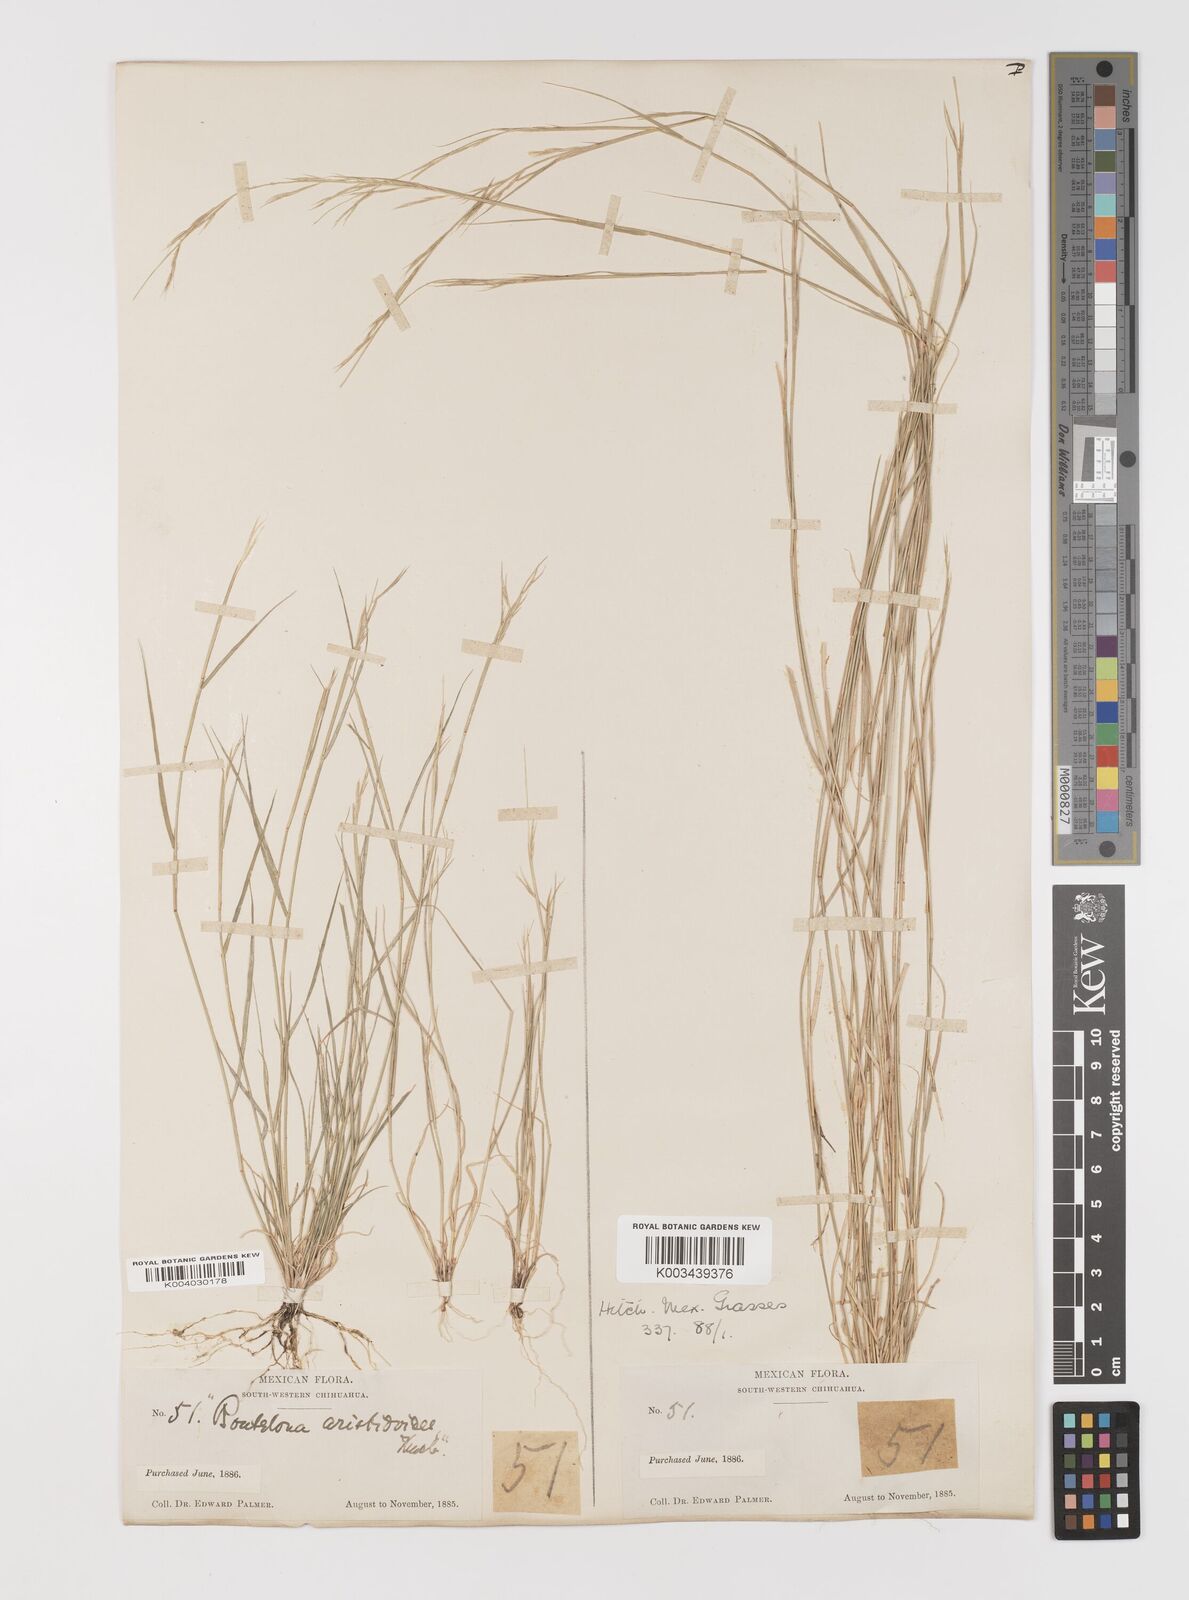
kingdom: Plantae
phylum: Tracheophyta
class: Liliopsida
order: Poales
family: Poaceae
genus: Bouteloua
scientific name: Bouteloua aristidoides
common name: Needle grama
